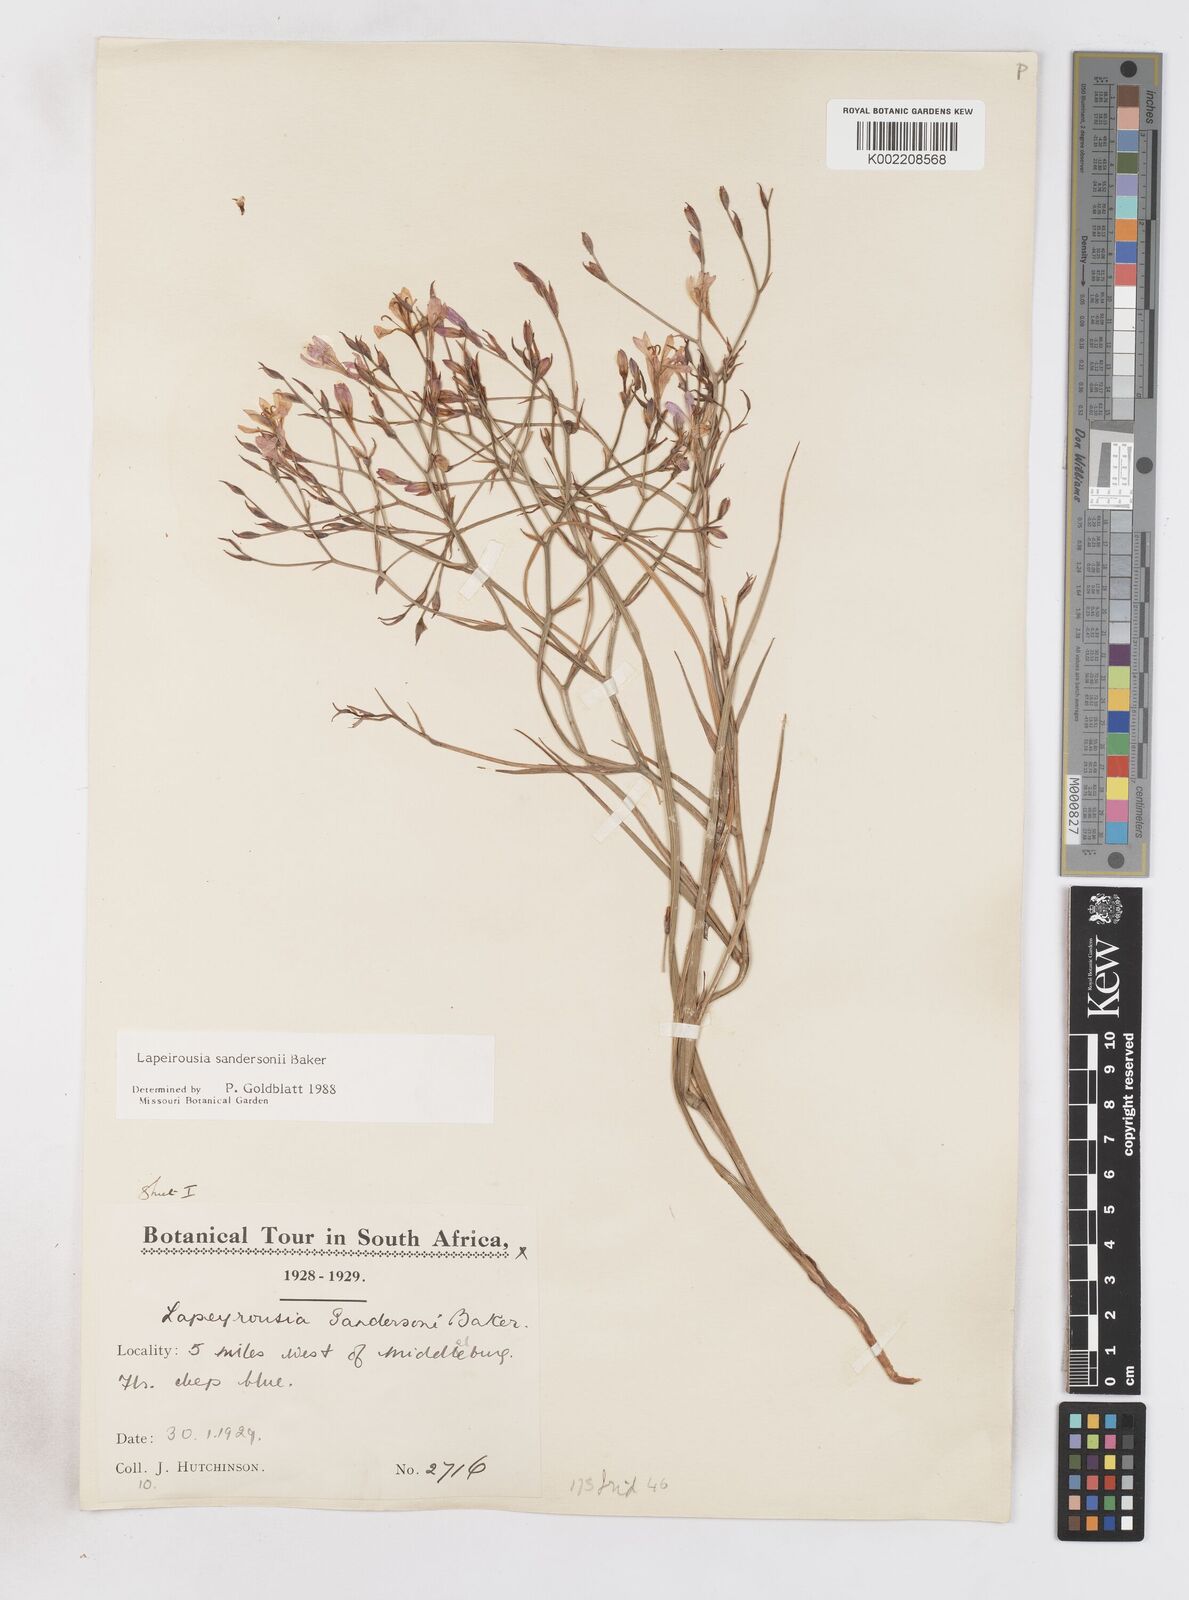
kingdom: Plantae
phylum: Tracheophyta
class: Liliopsida
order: Asparagales
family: Iridaceae
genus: Afrosolen
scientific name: Afrosolen sandersonii
